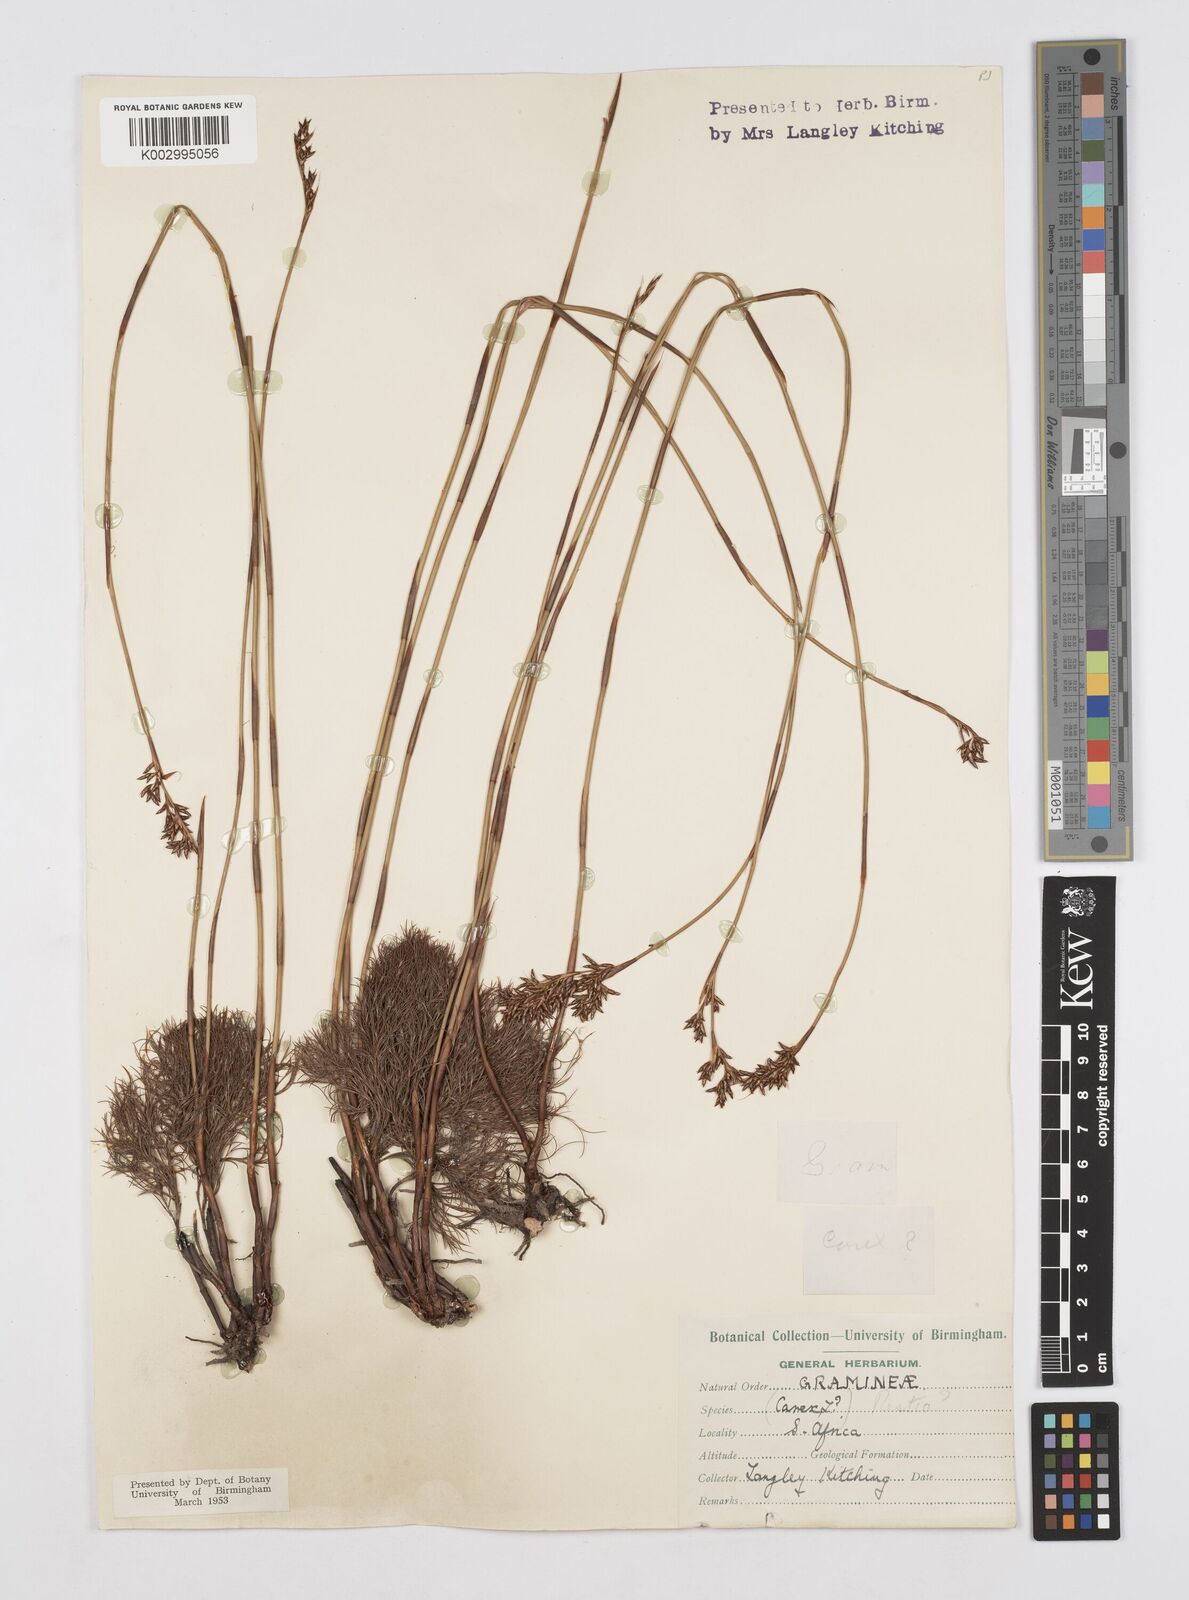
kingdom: Plantae
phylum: Tracheophyta
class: Liliopsida
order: Poales
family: Restionaceae
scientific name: Restionaceae
